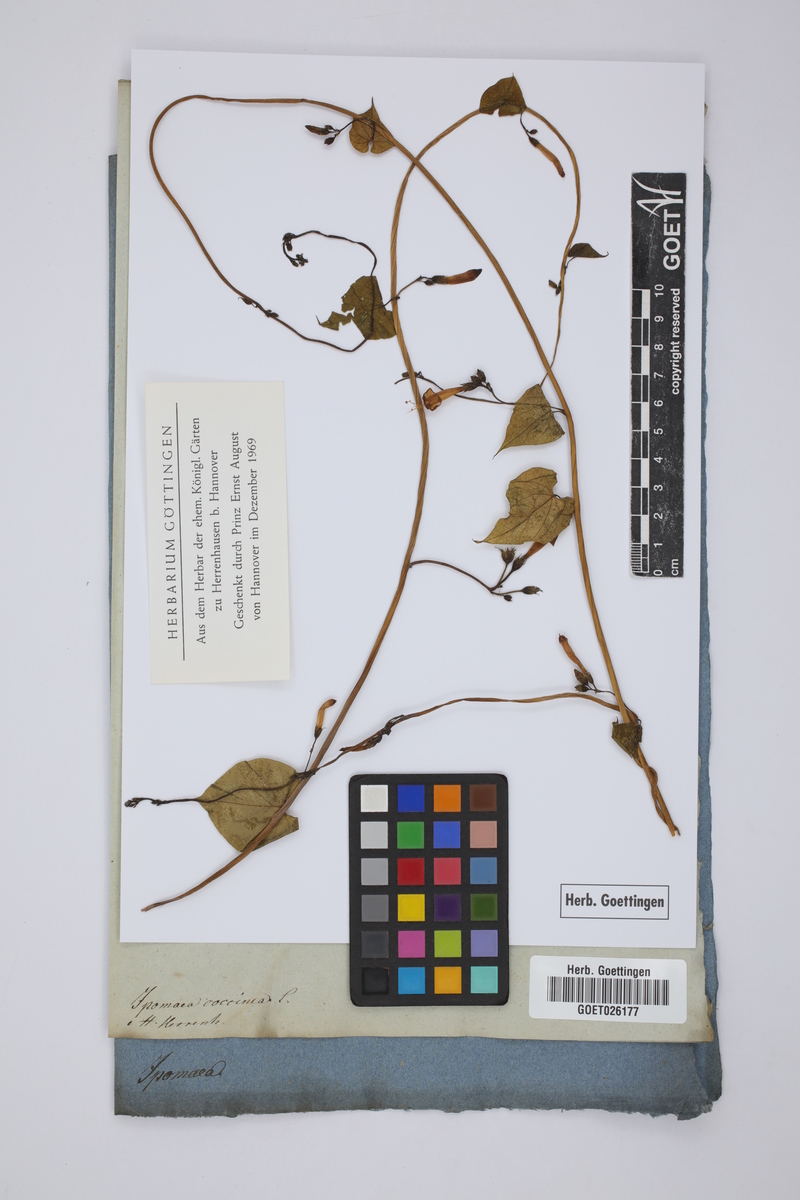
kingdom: Plantae
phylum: Tracheophyta
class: Magnoliopsida
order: Solanales
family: Convolvulaceae
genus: Ipomoea
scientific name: Ipomoea rubriflora
